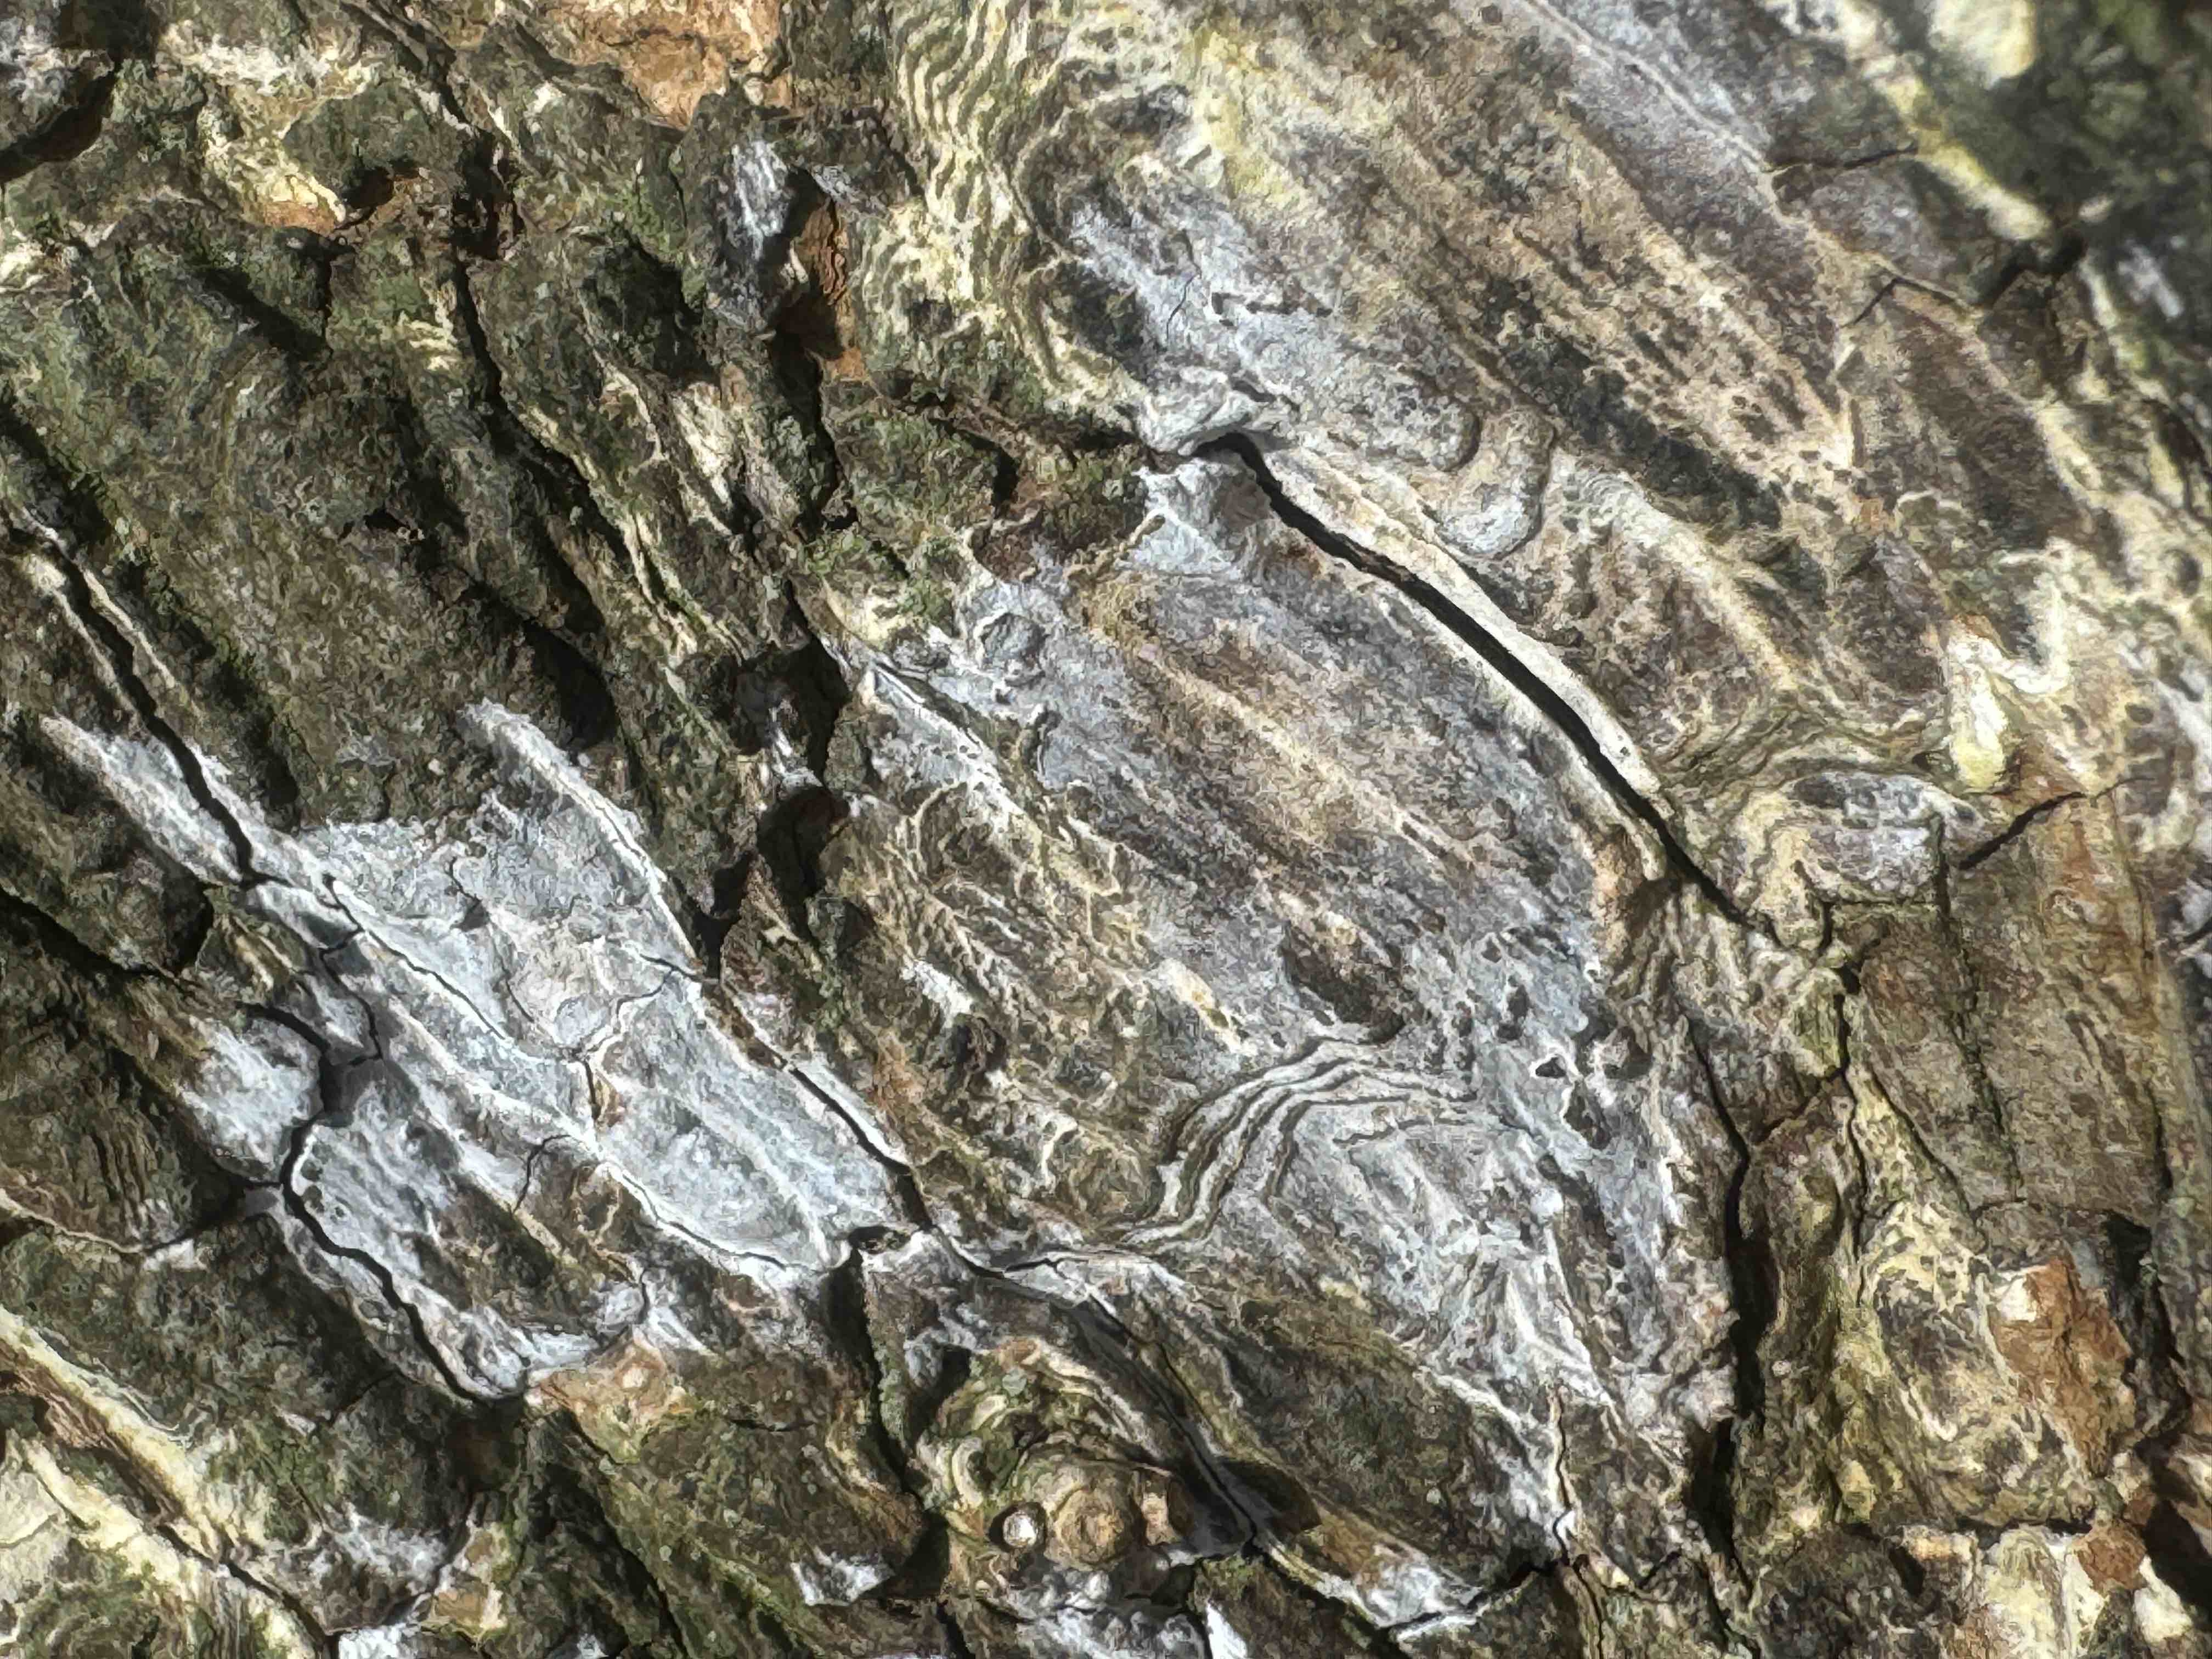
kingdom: Fungi
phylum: Basidiomycota
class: Agaricomycetes
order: Agaricales
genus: Dendrothele
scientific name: Dendrothele acerina
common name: navr-kalkplet
